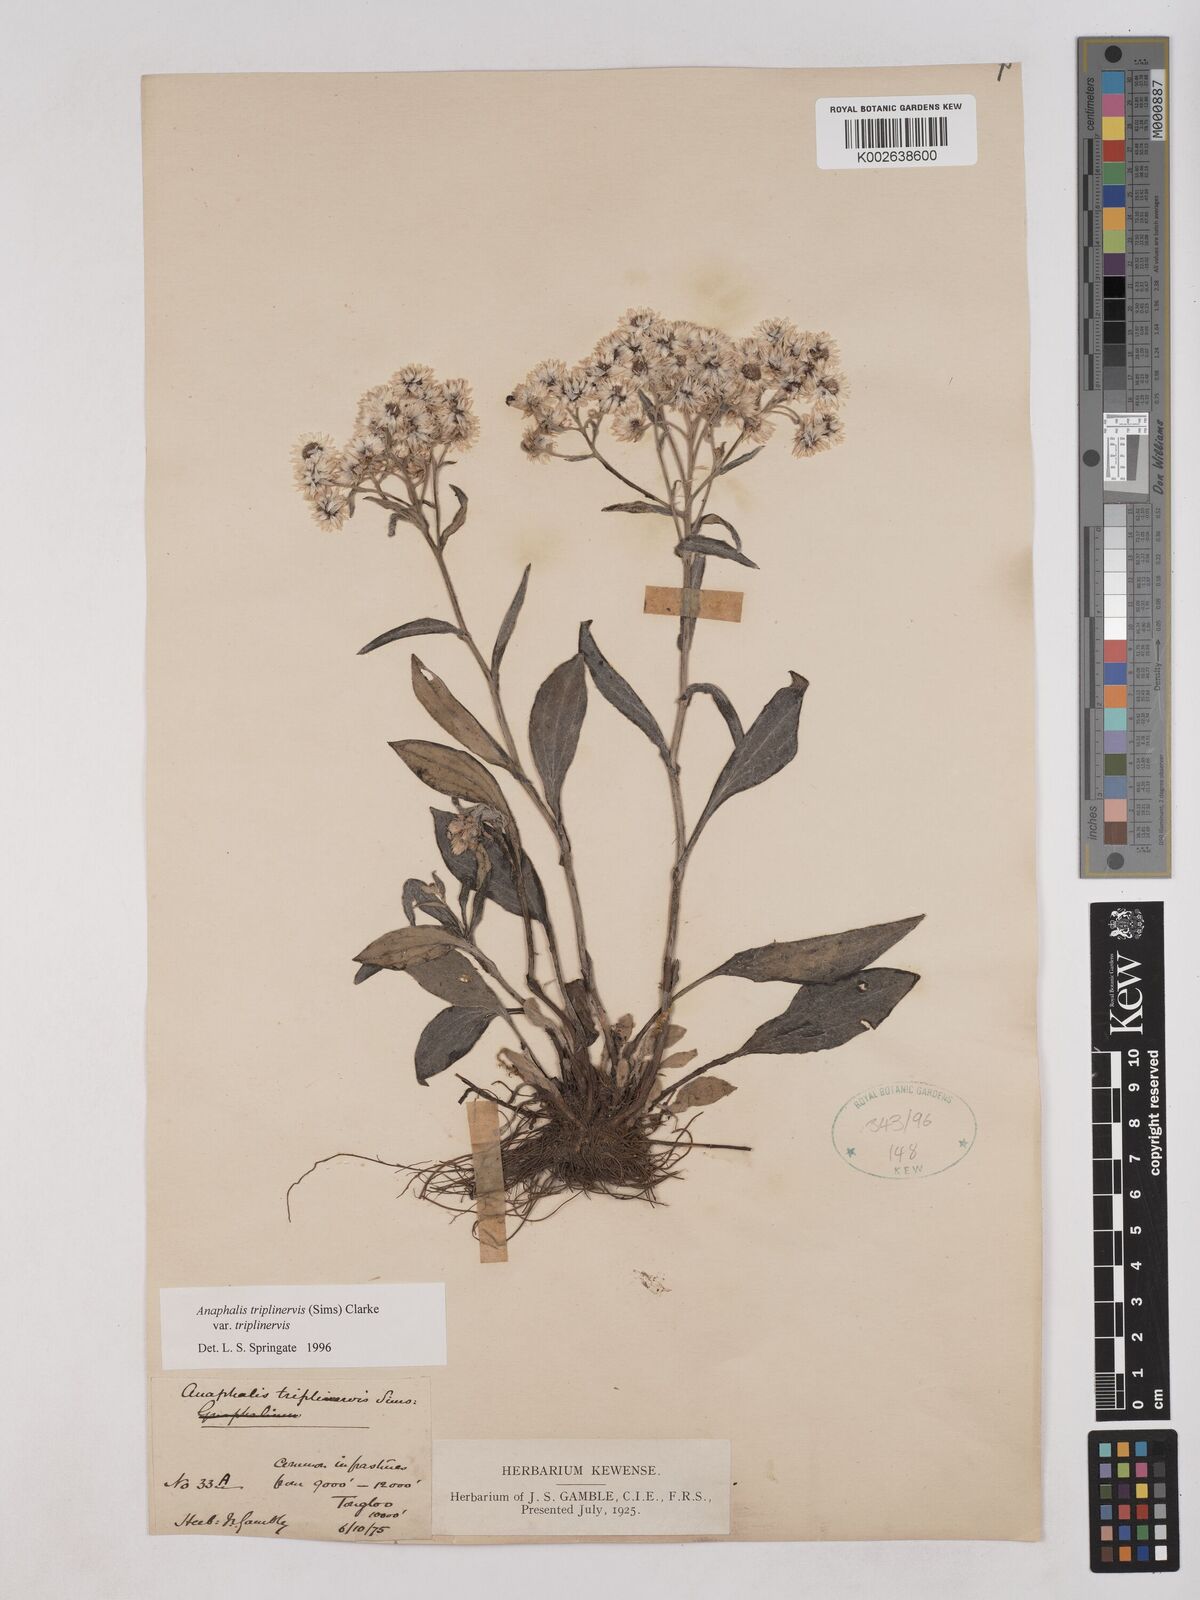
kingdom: Plantae
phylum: Tracheophyta
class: Magnoliopsida
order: Asterales
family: Asteraceae
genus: Anaphalis
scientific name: Anaphalis triplinervis
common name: Pearly everlasting
